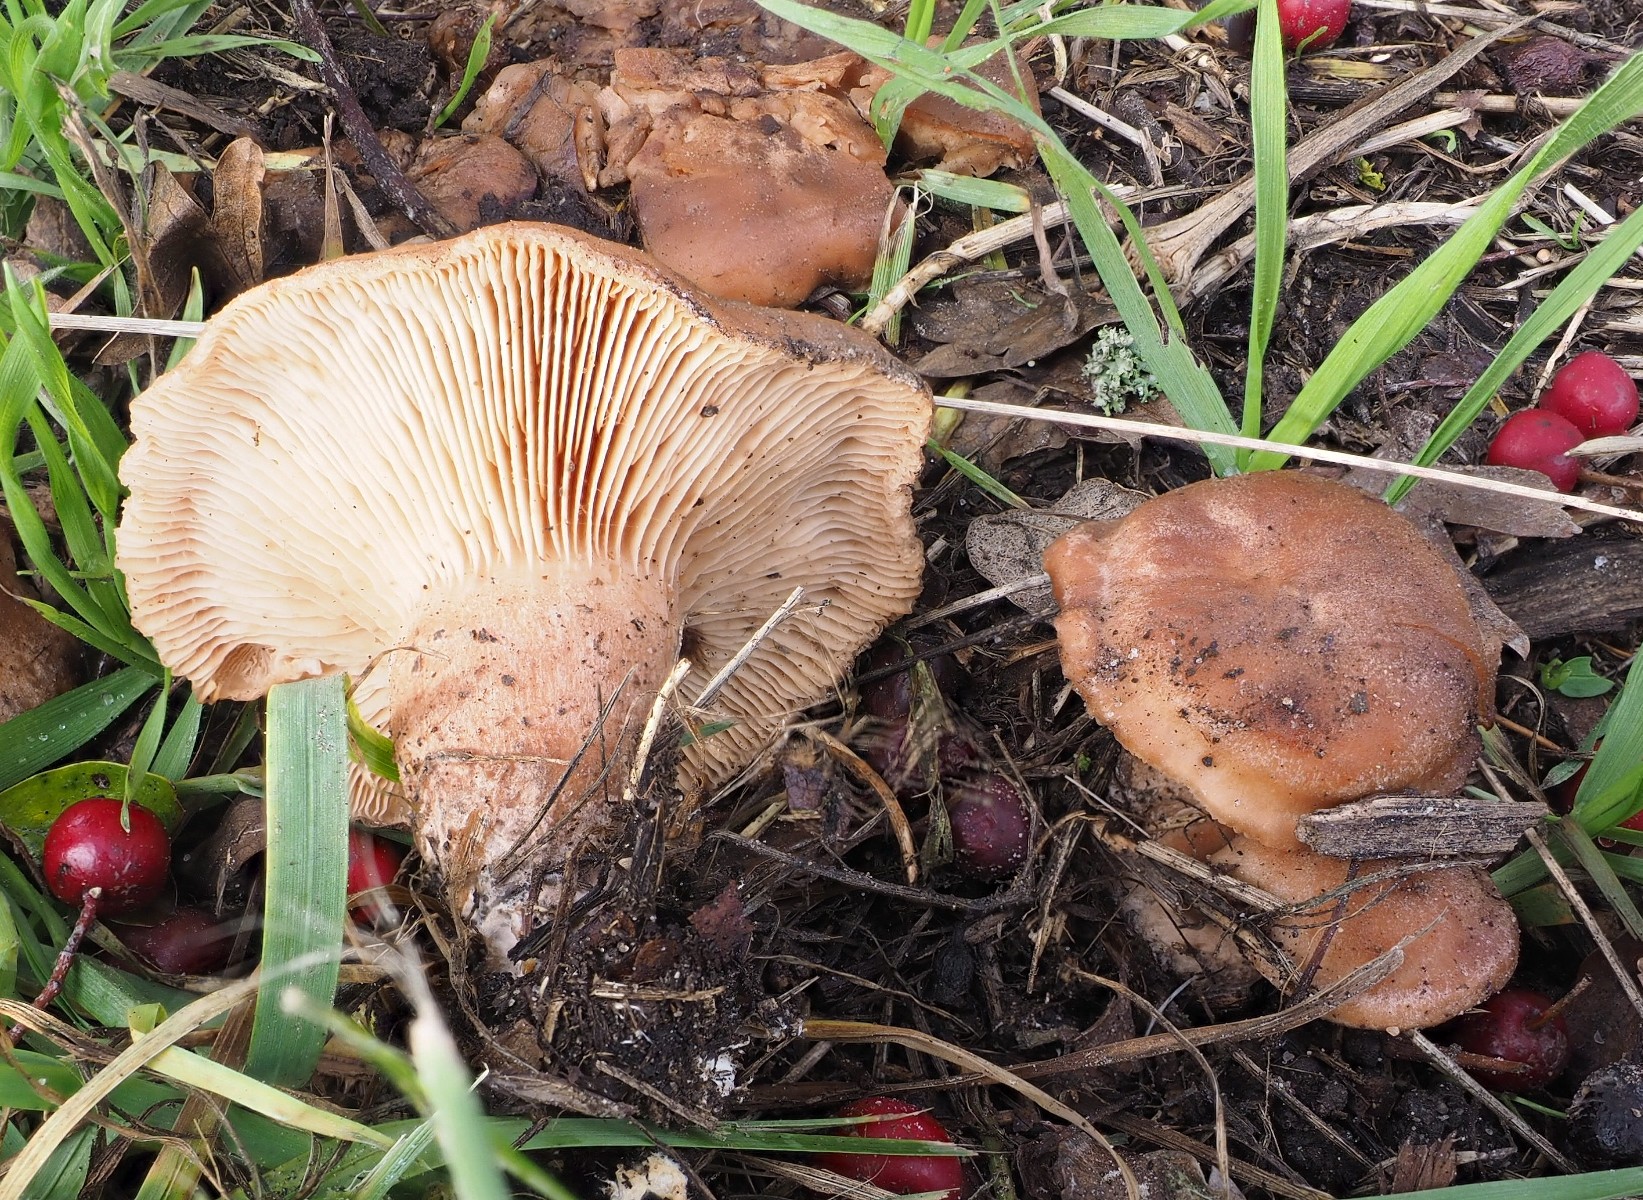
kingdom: Fungi
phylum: Basidiomycota
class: Agaricomycetes
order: Agaricales
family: Entolomataceae
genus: Clitopilus
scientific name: Clitopilus geminus
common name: kødfarvet troldhat
